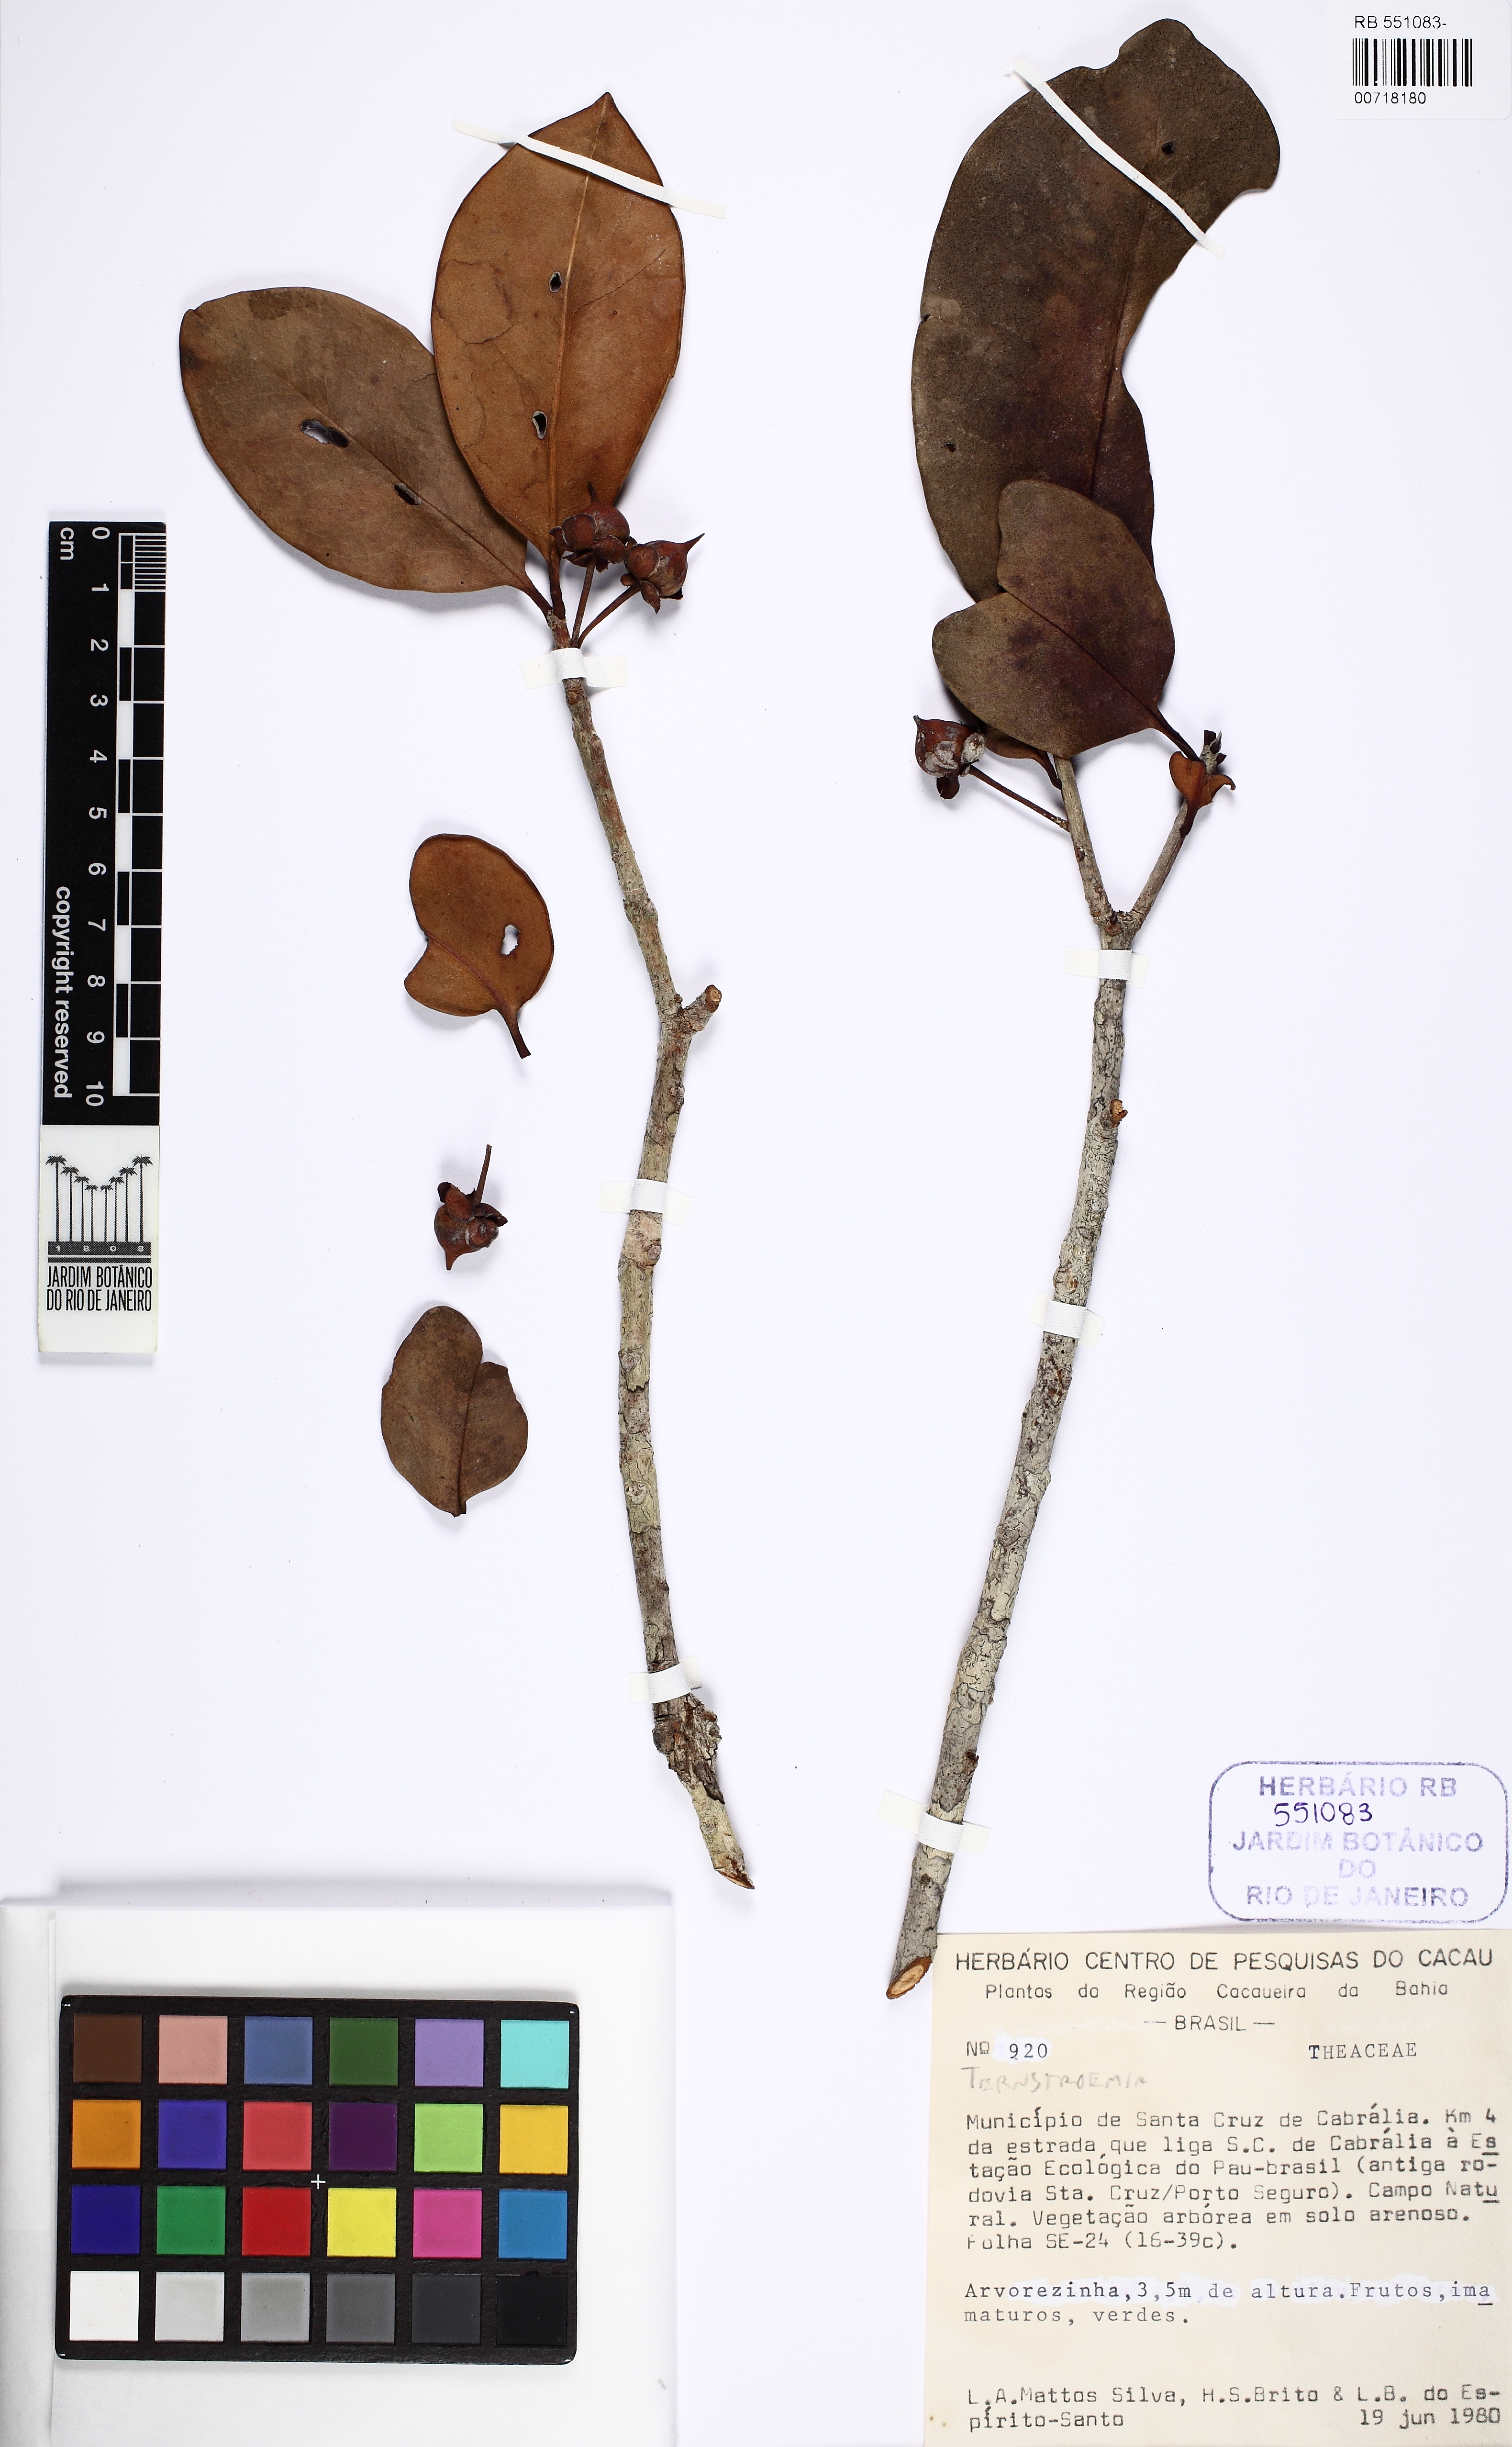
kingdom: Plantae
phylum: Tracheophyta
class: Magnoliopsida
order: Ericales
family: Pentaphylacaceae
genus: Ternstroemia
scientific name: Ternstroemia brasiliensis
